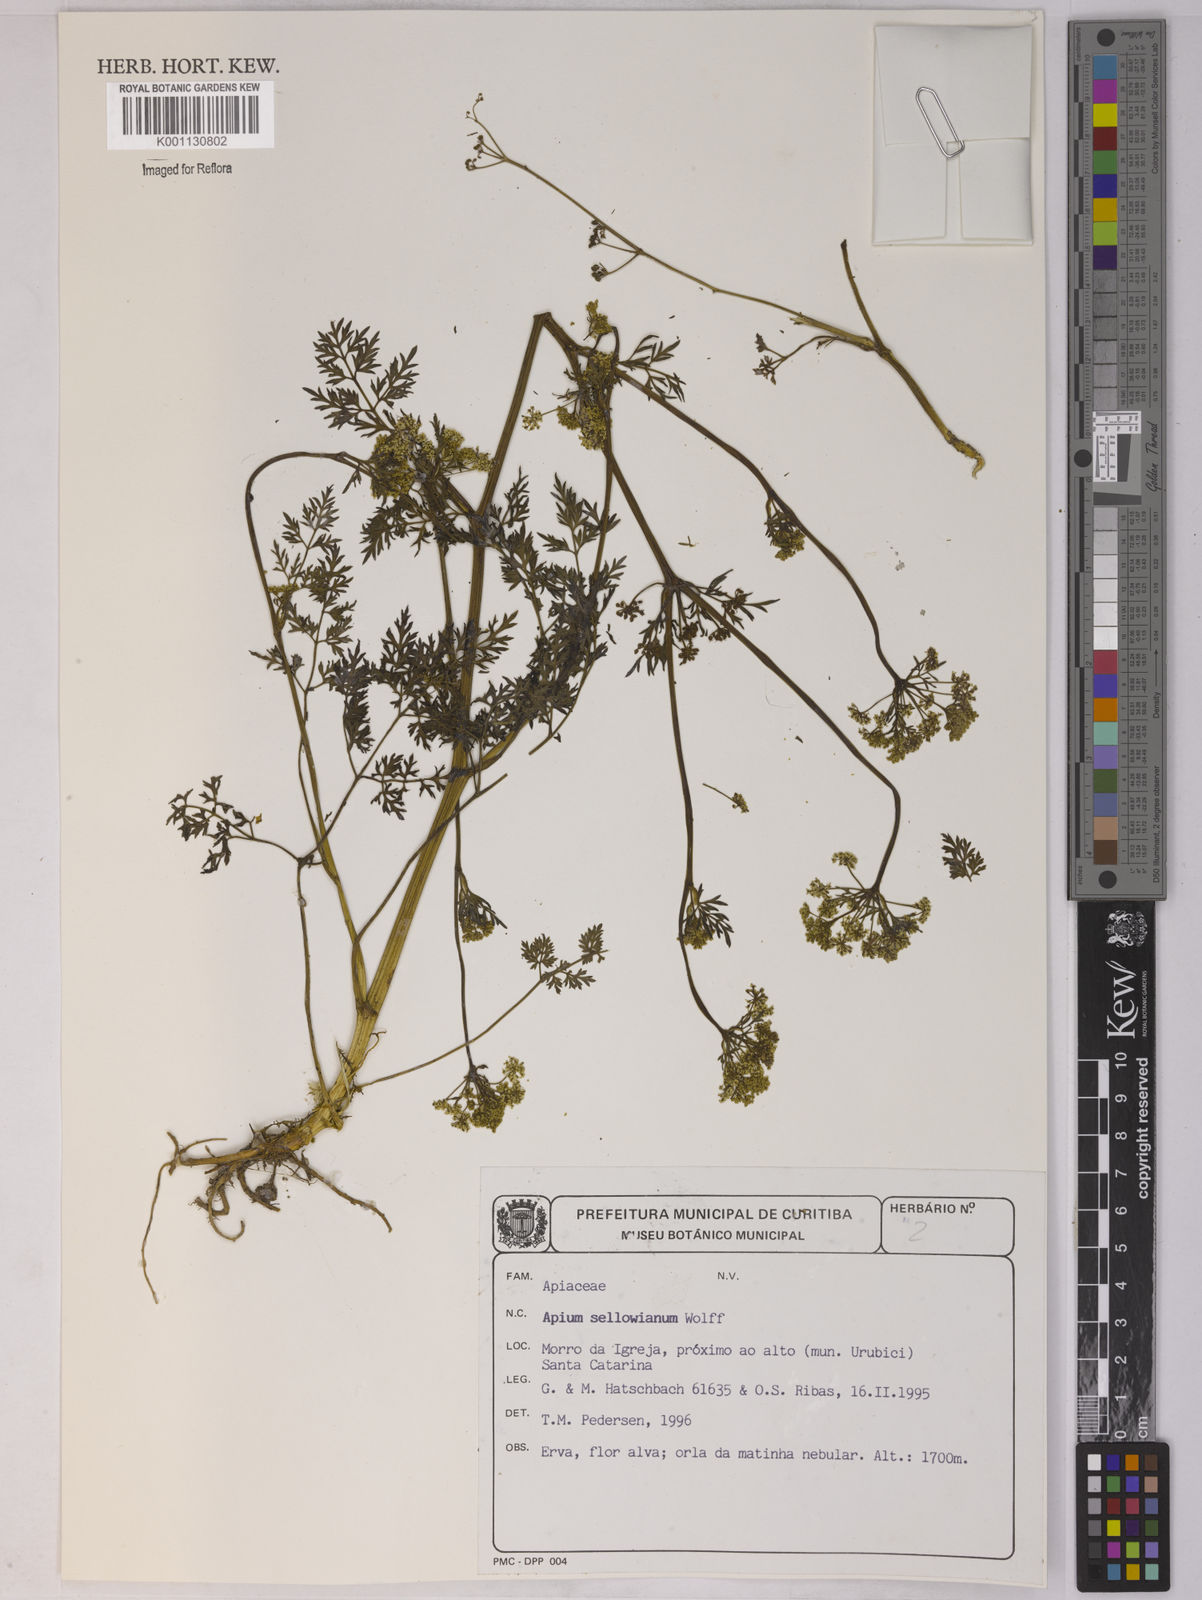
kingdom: Plantae
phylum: Tracheophyta
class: Magnoliopsida
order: Apiales
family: Apiaceae
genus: Apium
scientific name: Apium sellowianum
